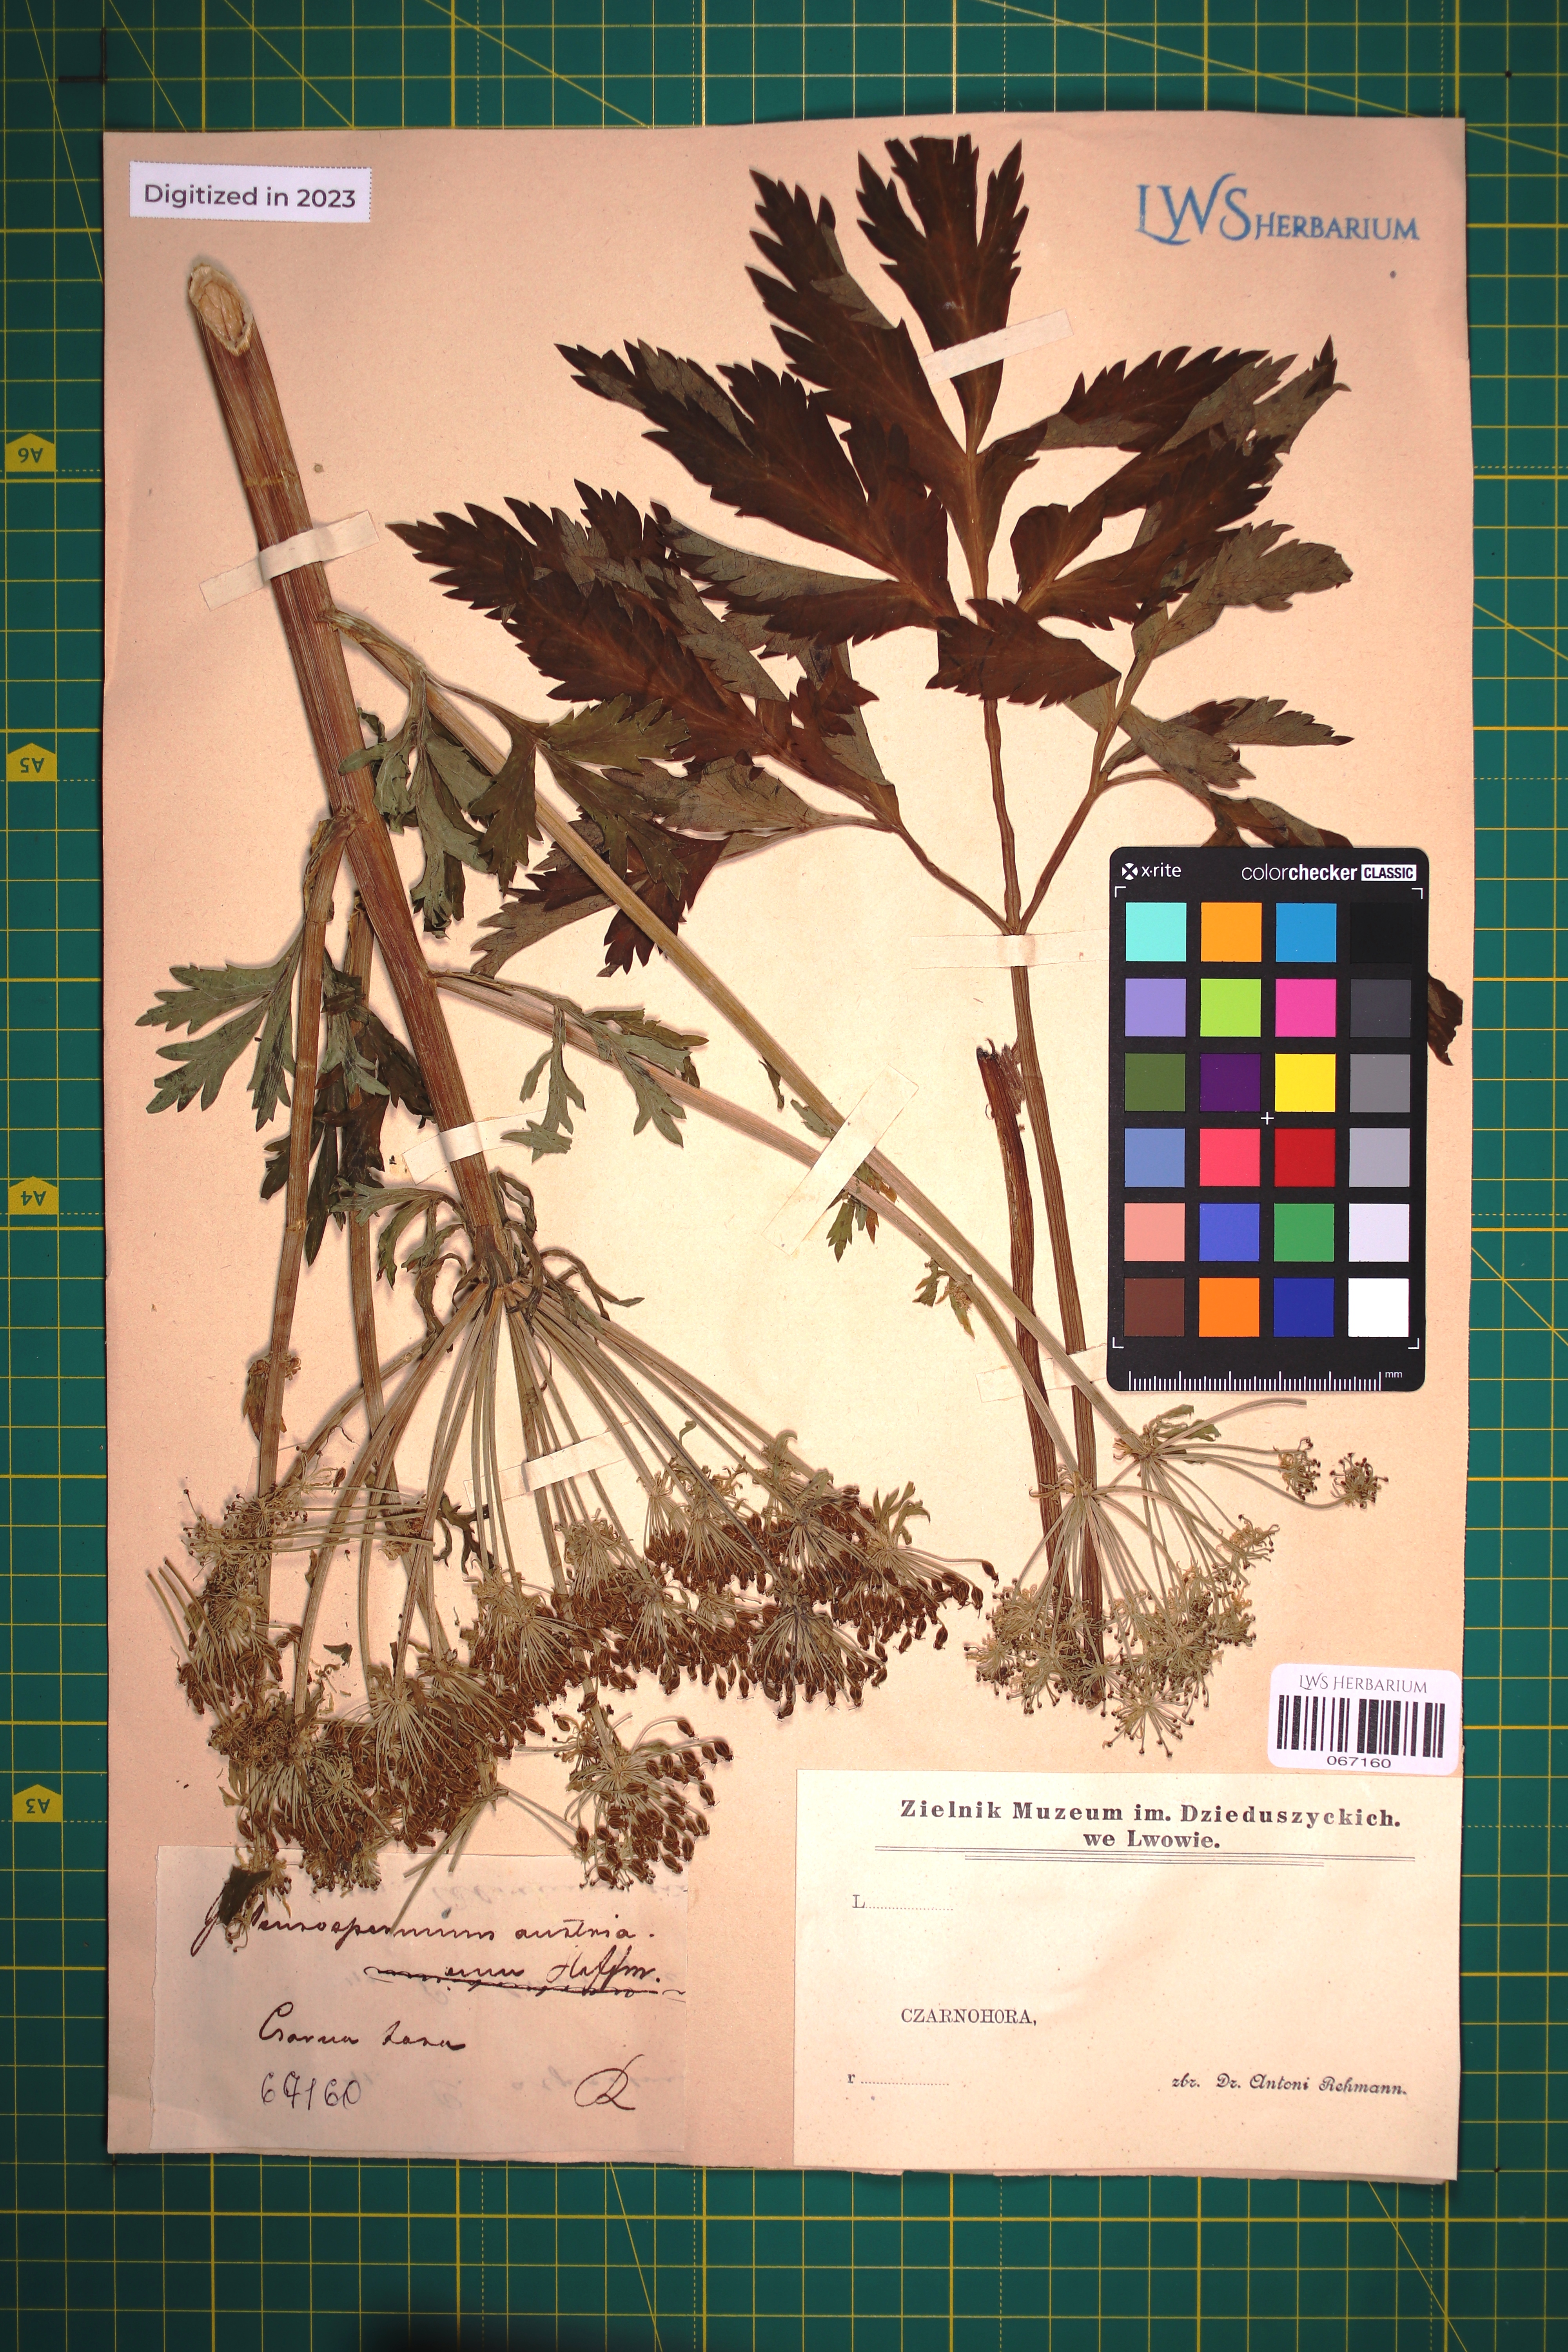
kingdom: Plantae
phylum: Tracheophyta
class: Magnoliopsida
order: Apiales
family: Apiaceae
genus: Pleurospermum
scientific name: Pleurospermum austriacum
